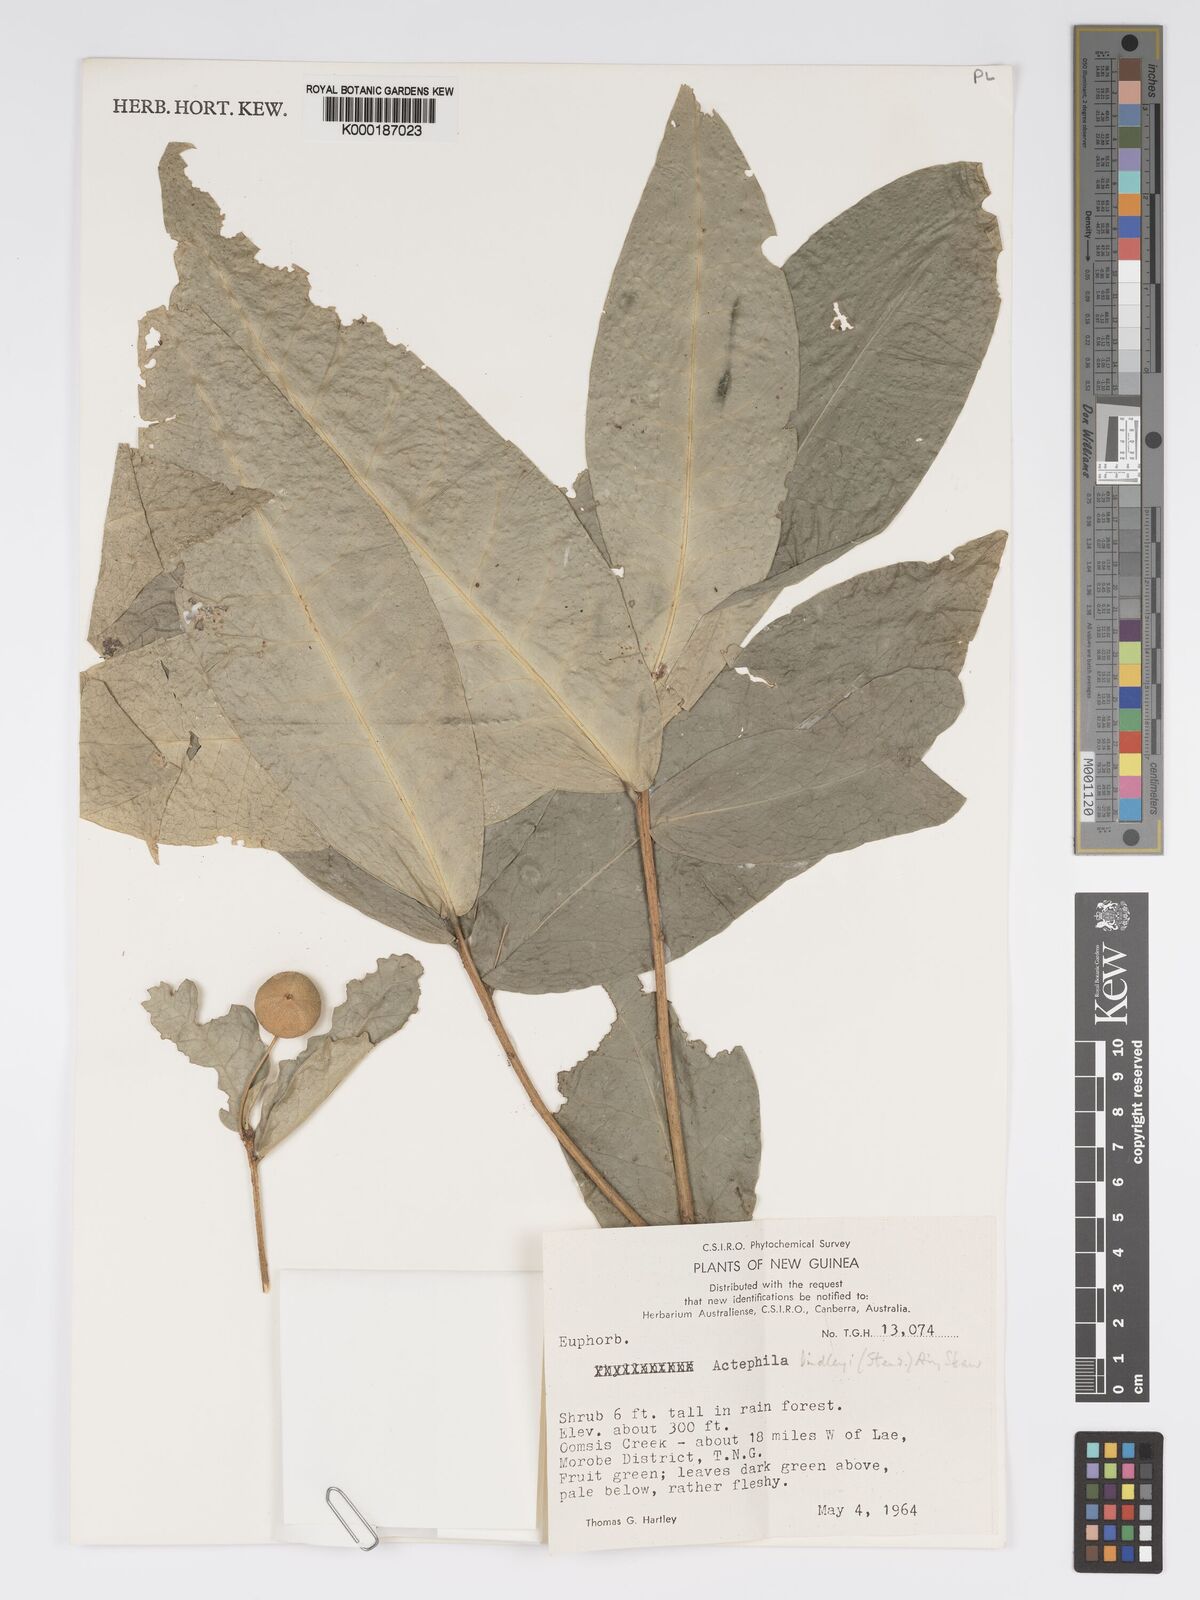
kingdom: Plantae
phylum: Tracheophyta
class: Magnoliopsida
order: Malpighiales
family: Phyllanthaceae
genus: Actephila
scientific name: Actephila lindleyi
